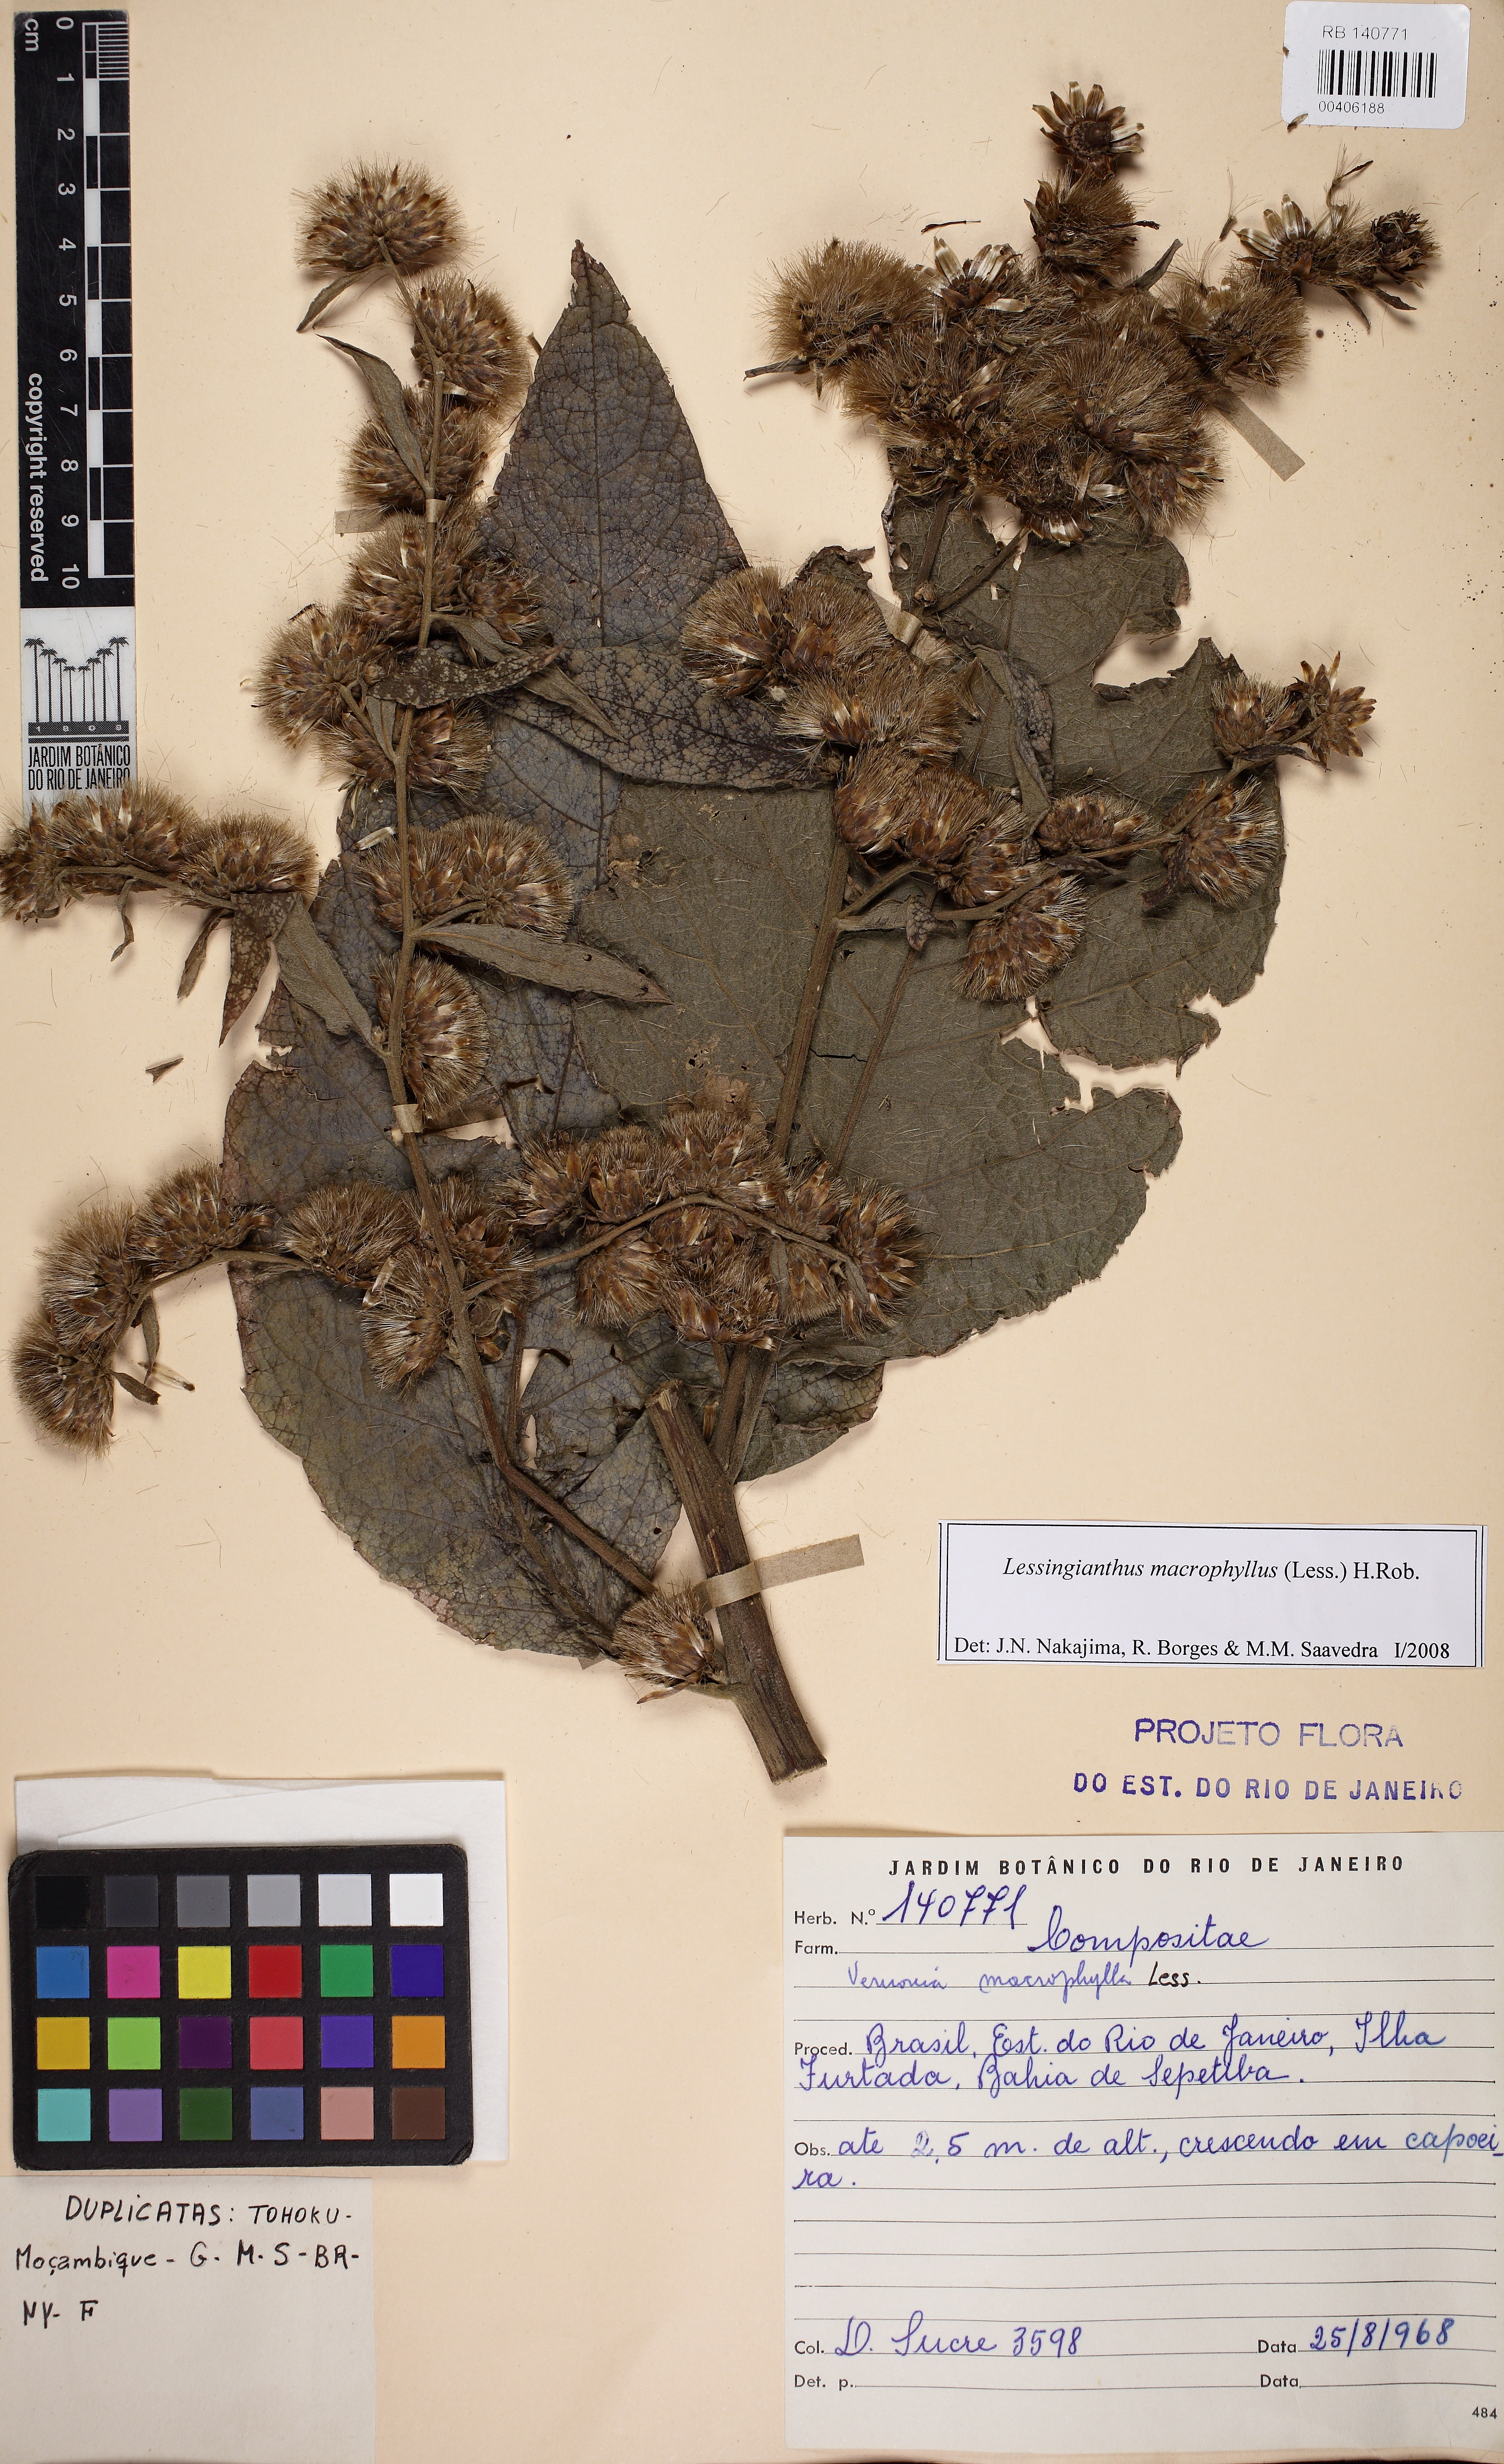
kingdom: Plantae
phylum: Tracheophyta
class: Magnoliopsida
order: Asterales
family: Asteraceae
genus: Lessingianthus
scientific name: Lessingianthus macrophyllus
